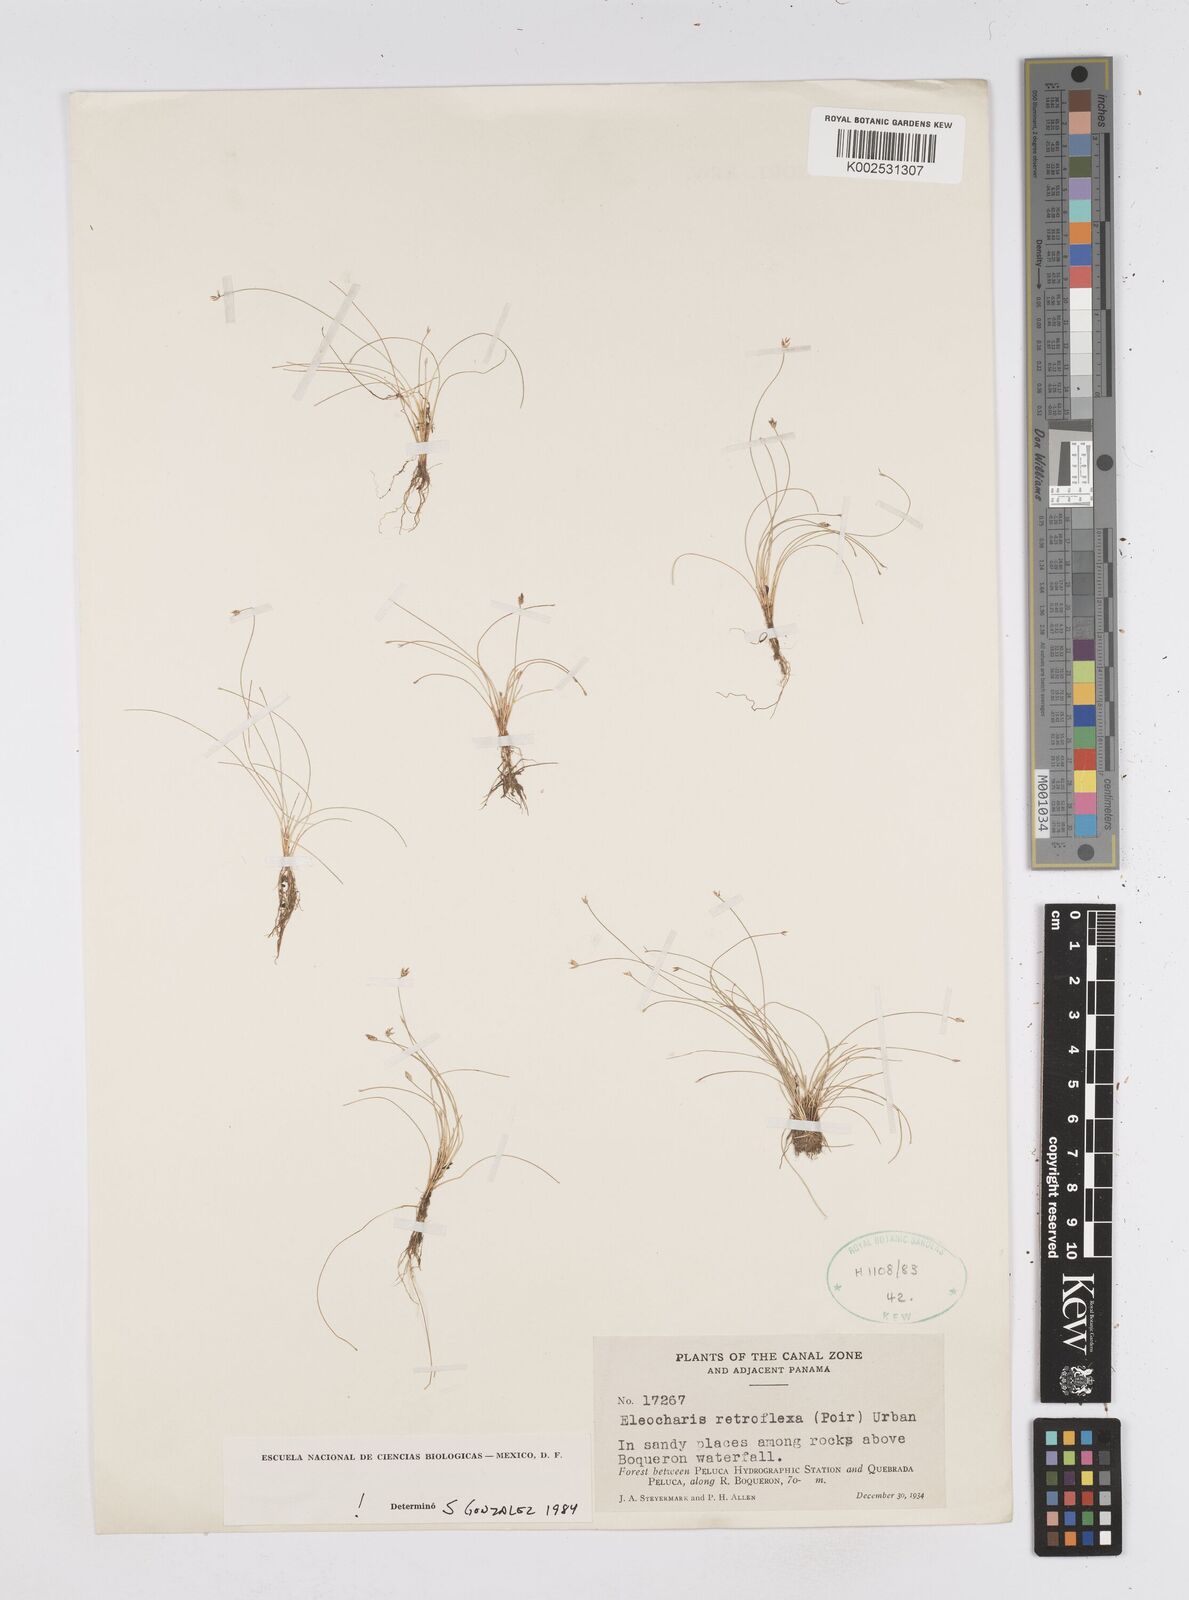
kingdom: Plantae
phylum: Tracheophyta
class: Liliopsida
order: Poales
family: Cyperaceae
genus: Eleocharis
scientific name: Eleocharis retroflexa
